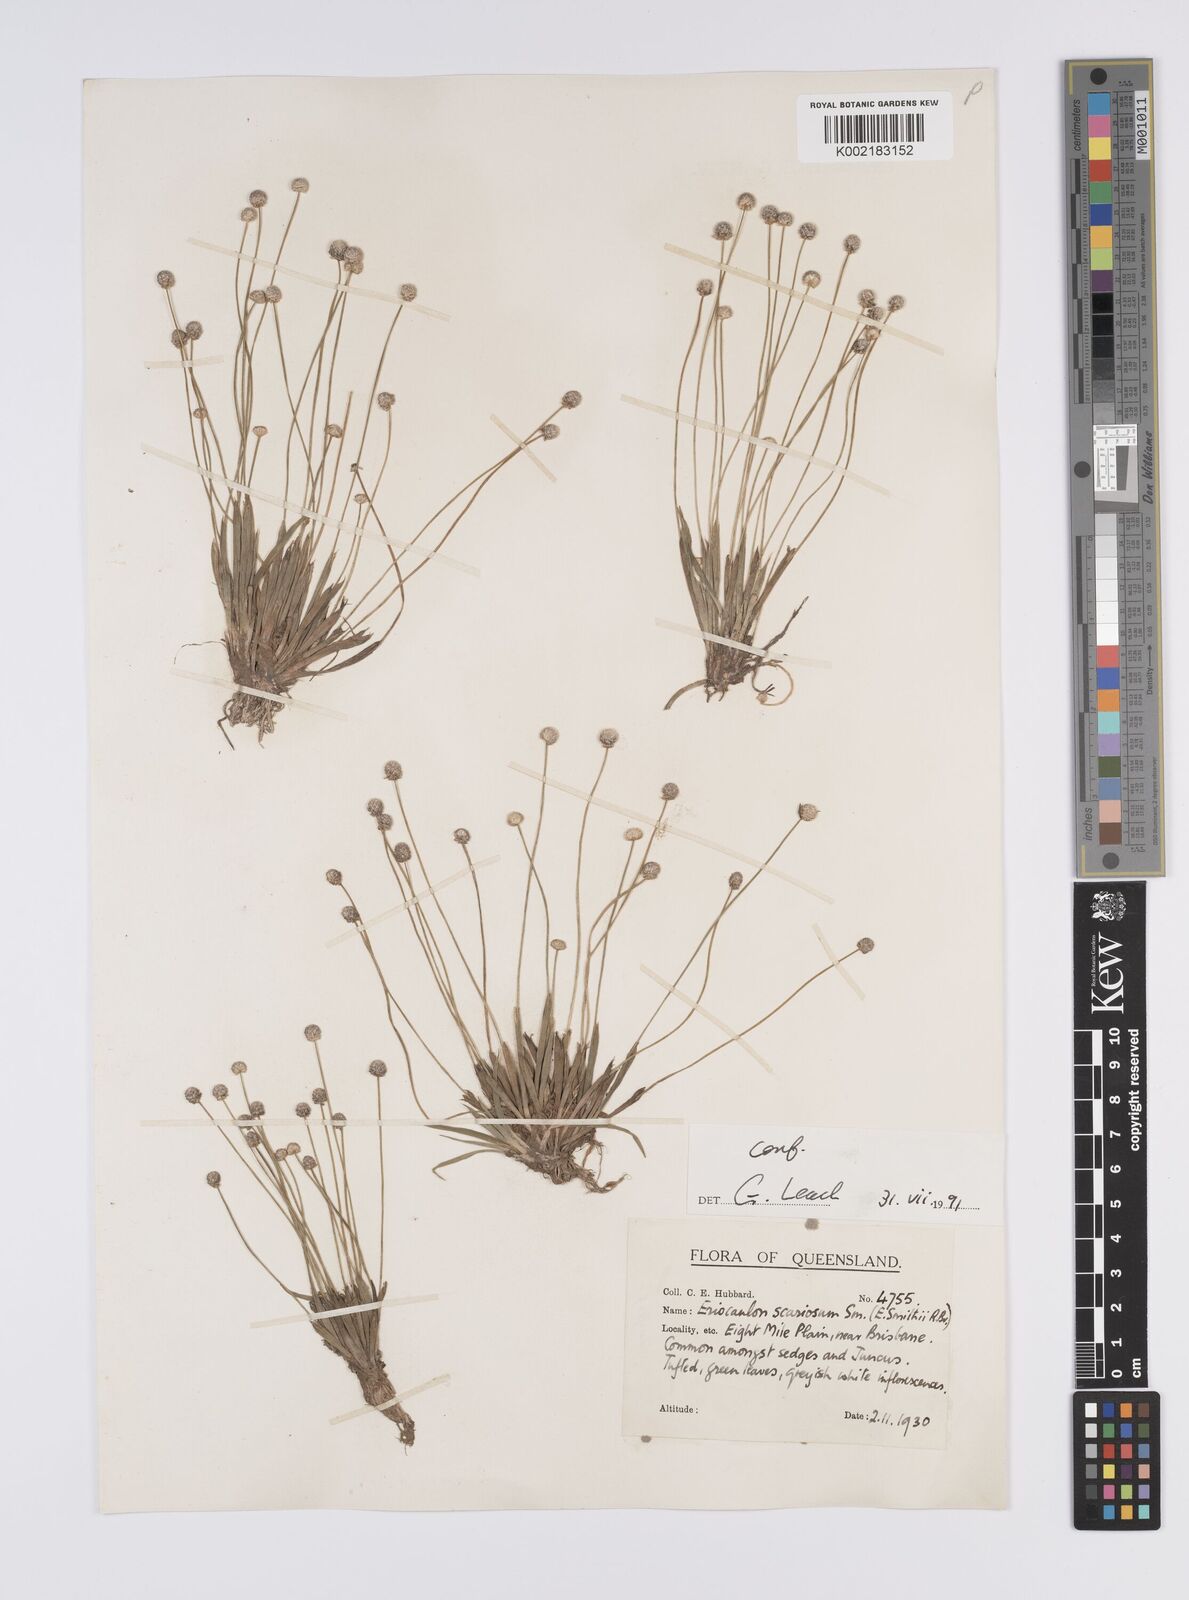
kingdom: Plantae
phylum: Tracheophyta
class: Liliopsida
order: Poales
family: Eriocaulaceae
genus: Eriocaulon
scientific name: Eriocaulon scariosum
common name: Rough pipewort
